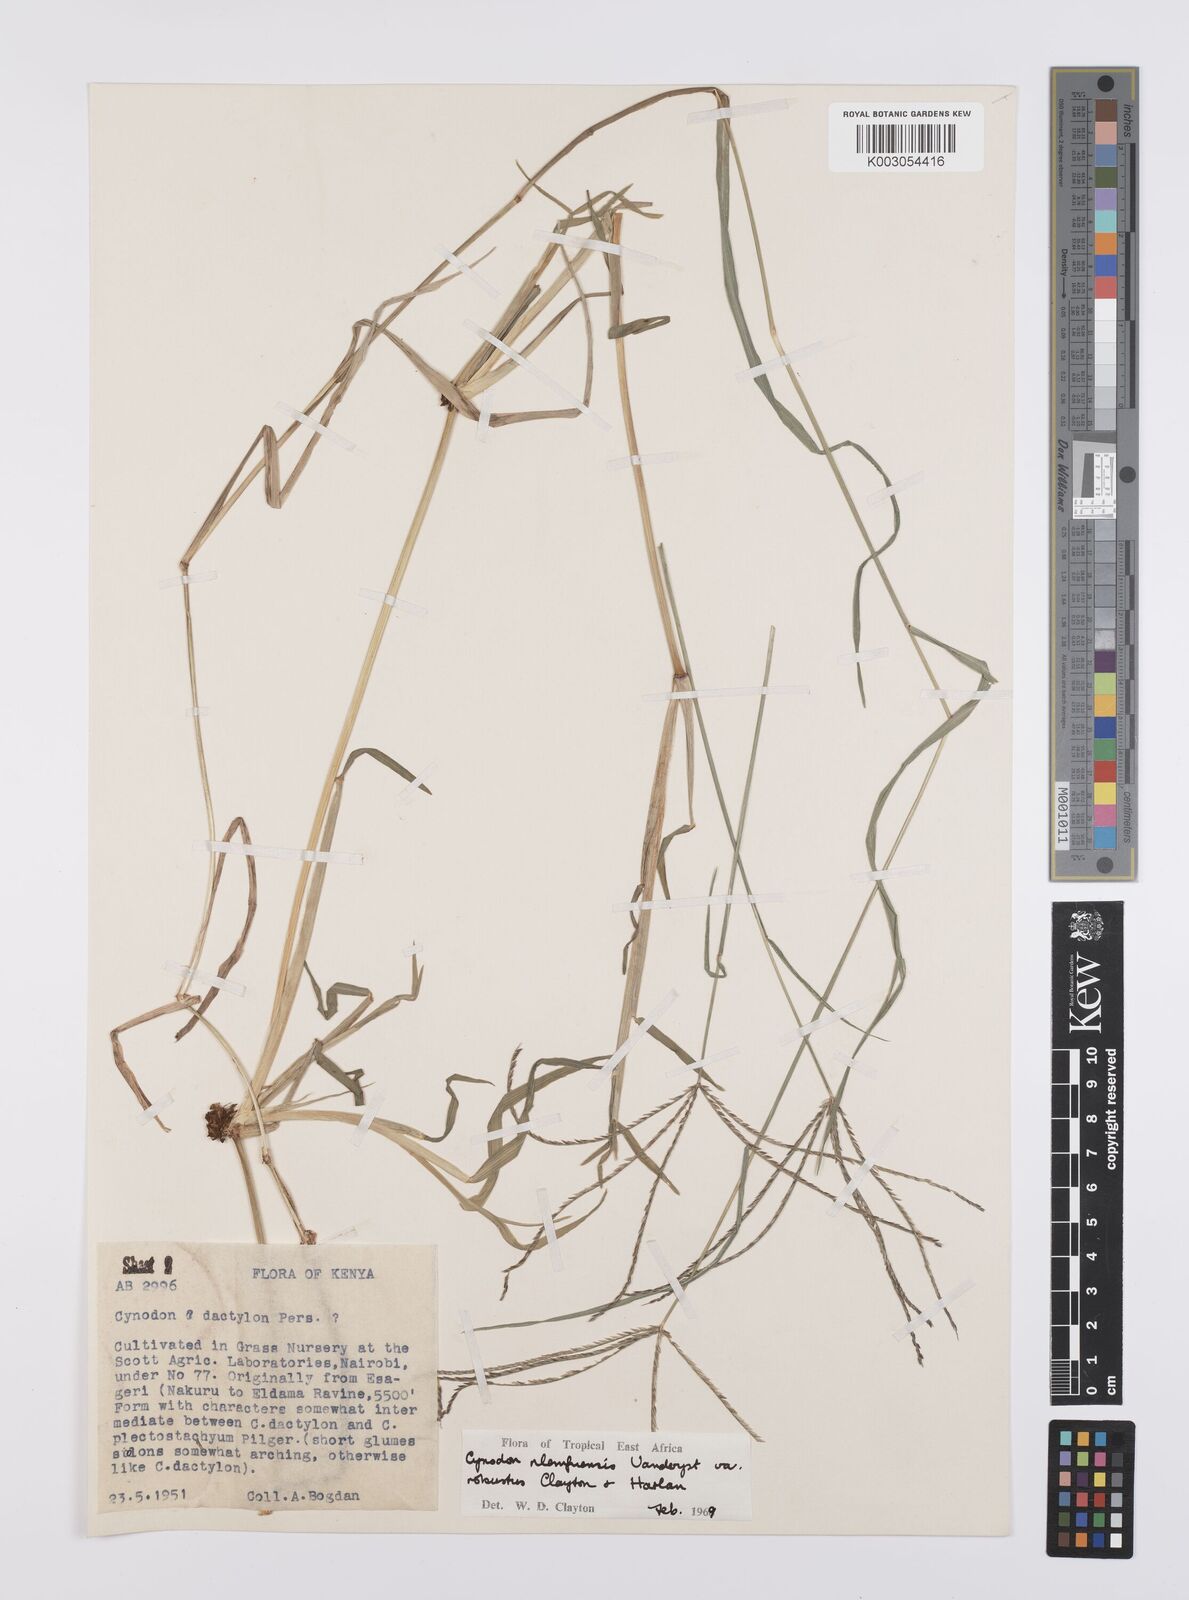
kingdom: Plantae
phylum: Tracheophyta
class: Liliopsida
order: Poales
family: Poaceae
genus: Cynodon
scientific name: Cynodon nlemfuensis
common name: African bermudagrass
